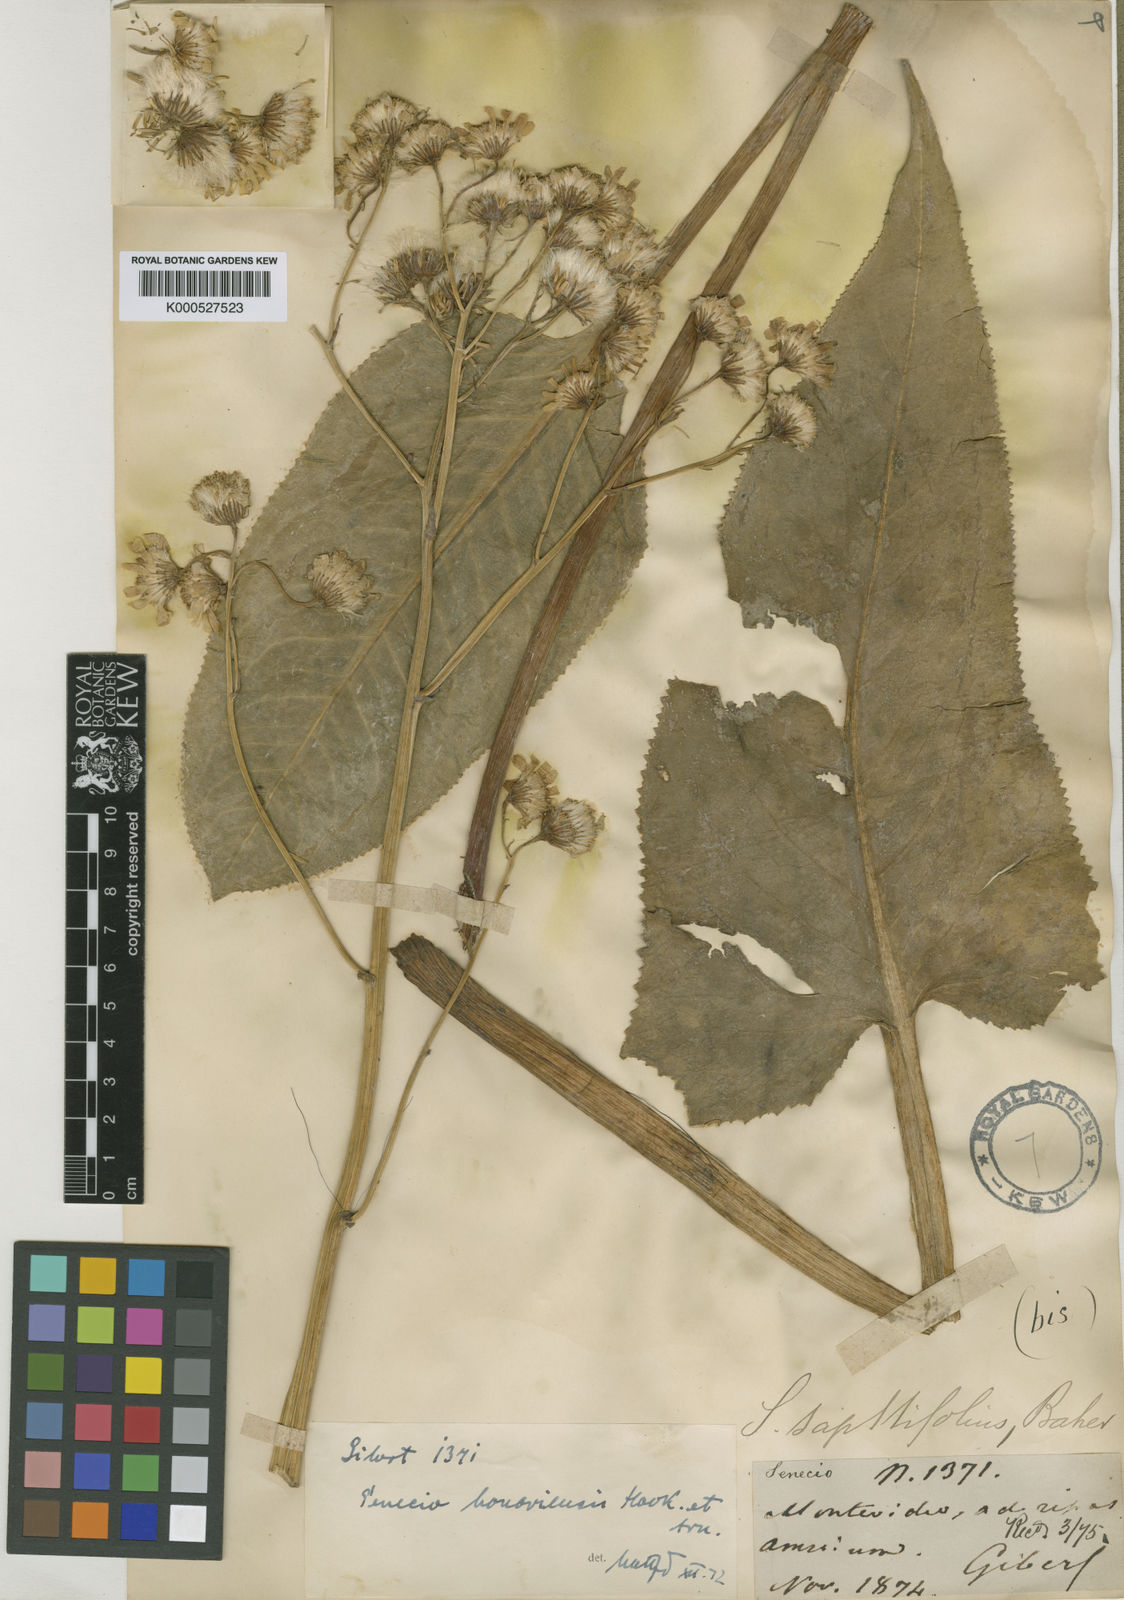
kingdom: Plantae
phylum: Tracheophyta
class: Magnoliopsida
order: Asterales
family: Asteraceae
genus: Senecio
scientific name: Senecio bonariensis
